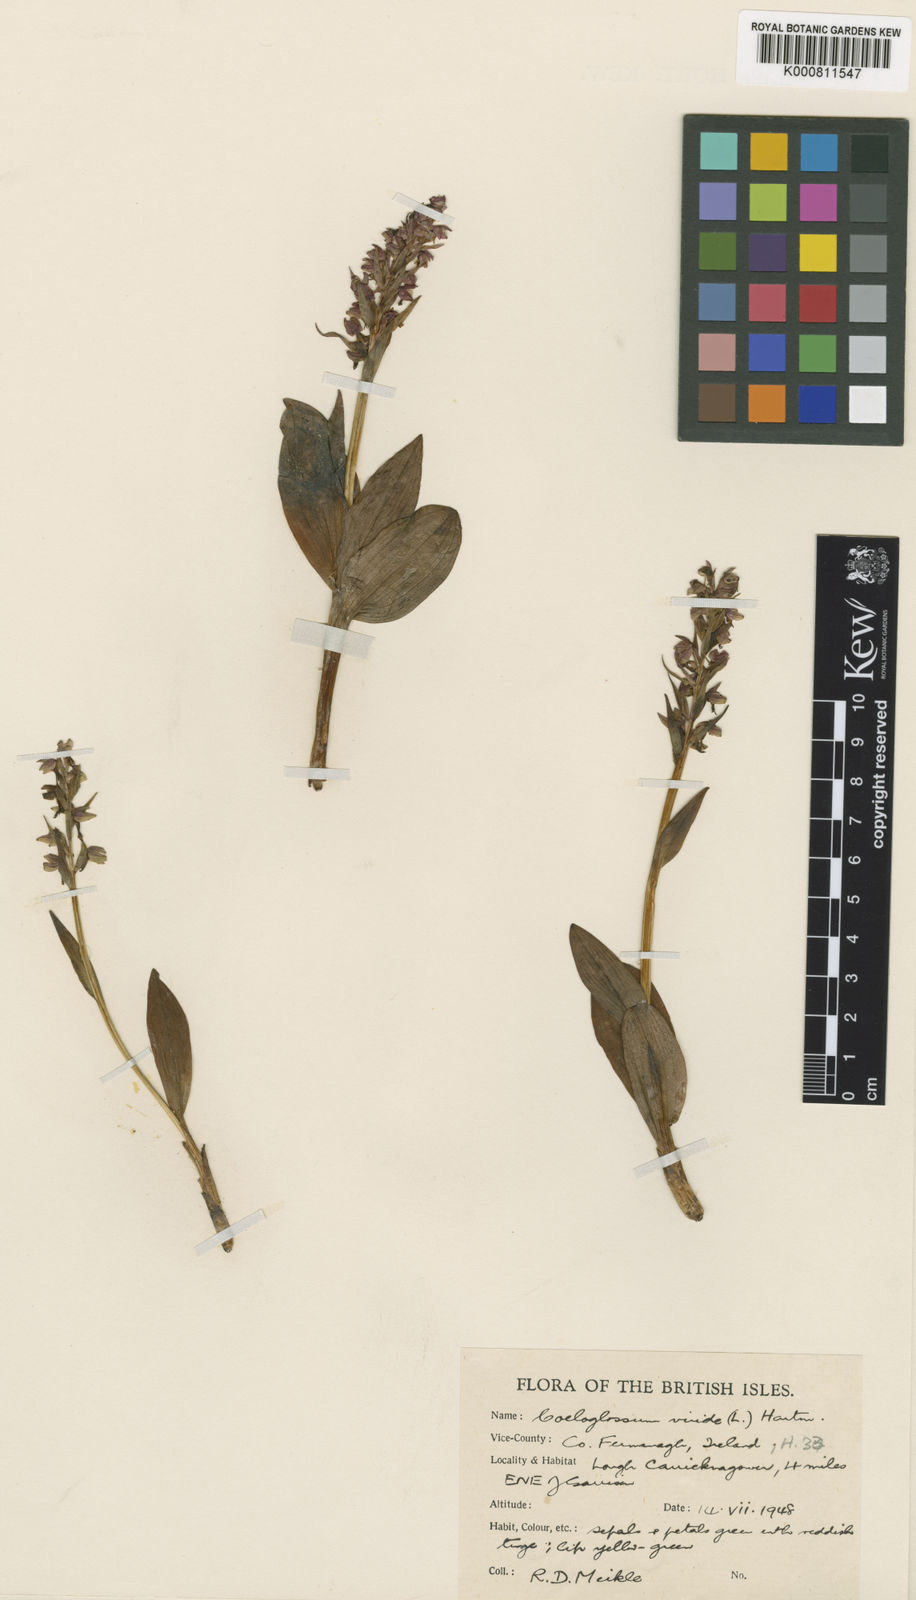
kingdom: Plantae
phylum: Tracheophyta
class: Liliopsida
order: Asparagales
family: Orchidaceae
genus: Dactylorhiza
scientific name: Dactylorhiza viridis
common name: Longbract frog orchid
